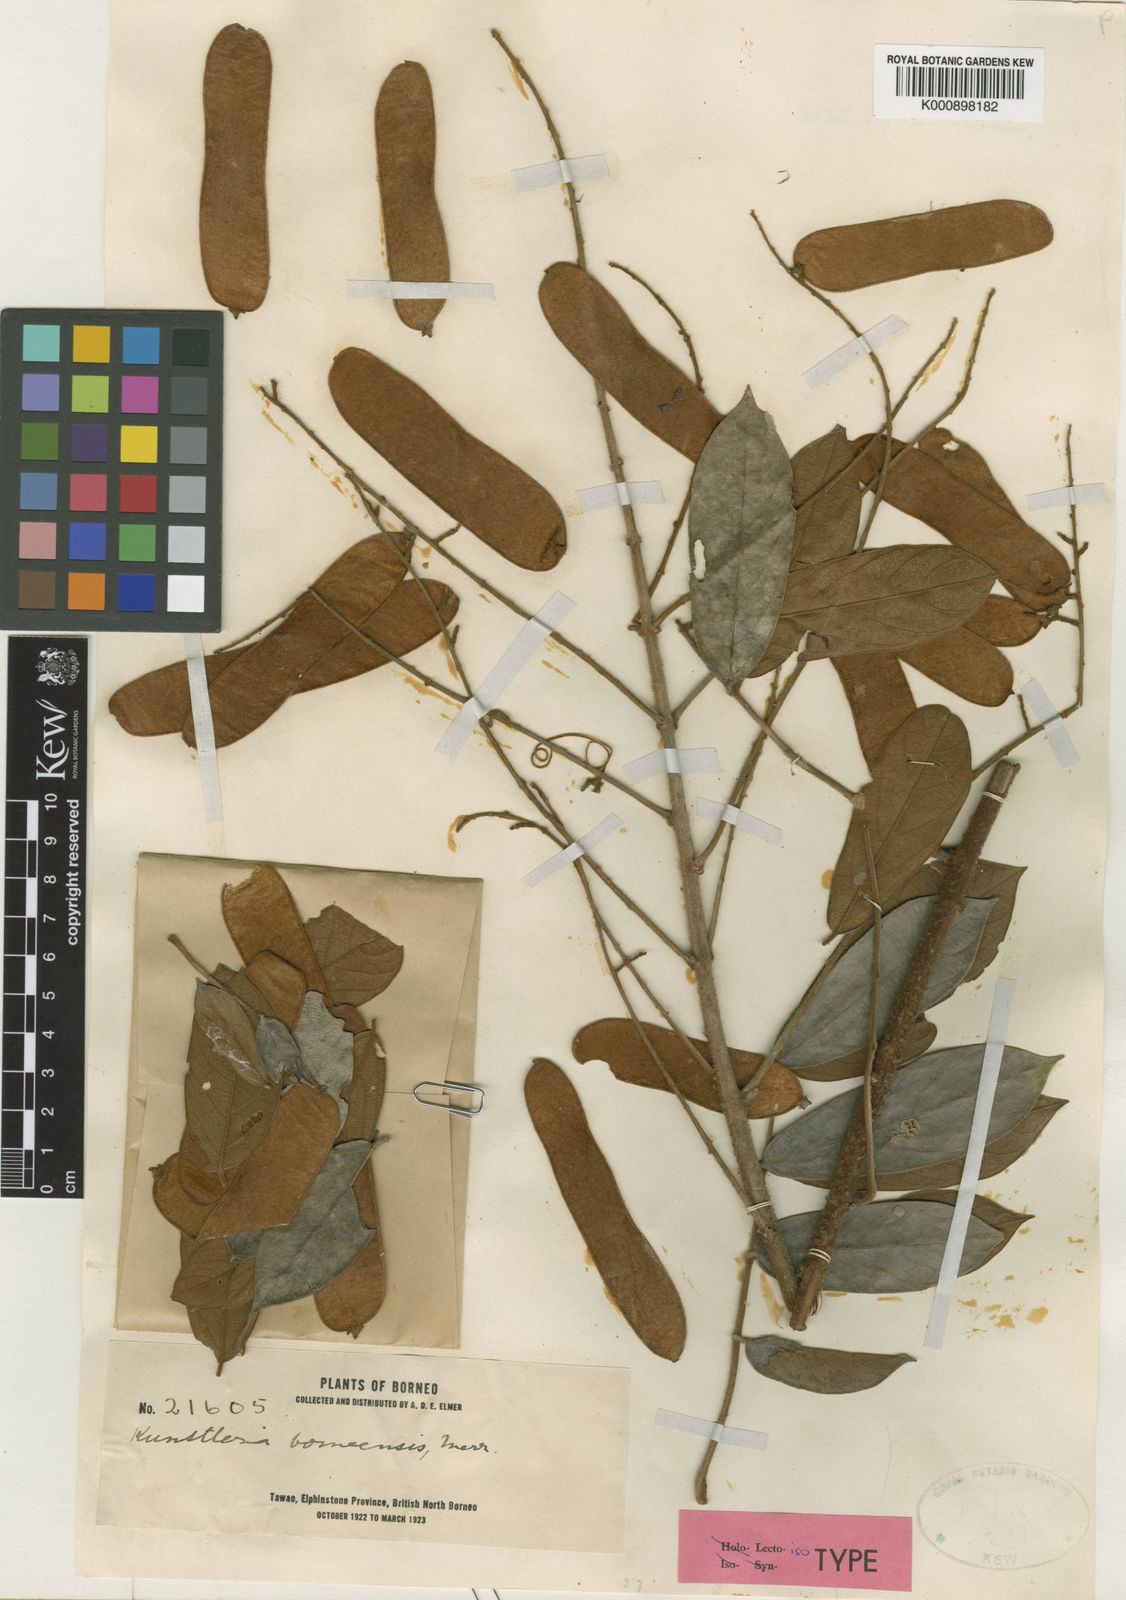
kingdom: Plantae
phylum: Tracheophyta
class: Magnoliopsida
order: Fabales
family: Fabaceae
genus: Kunstleria
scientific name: Kunstleria forbesii
